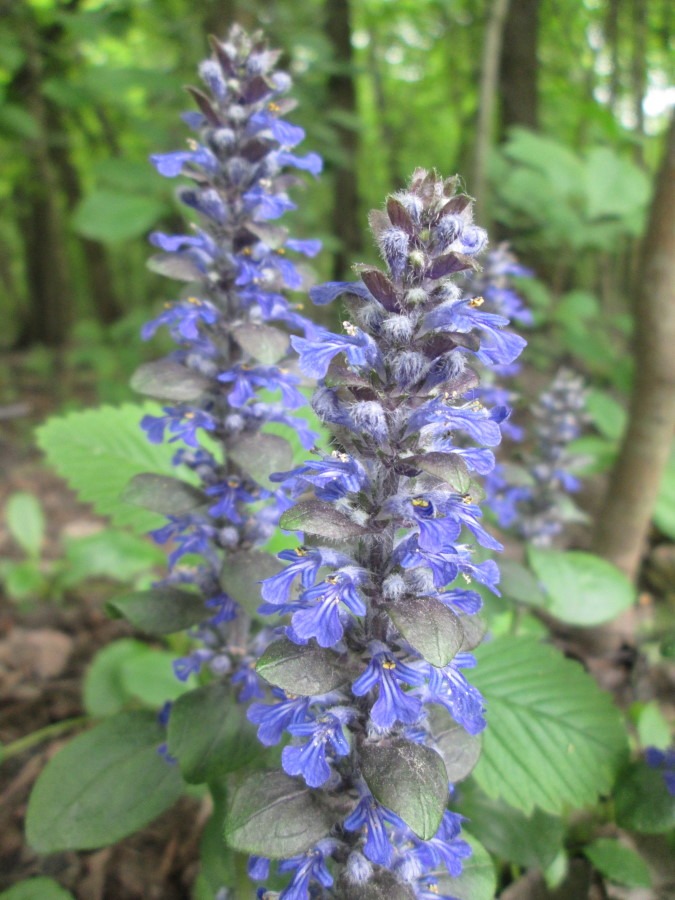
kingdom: Plantae
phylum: Tracheophyta
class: Magnoliopsida
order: Lamiales
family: Lamiaceae
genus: Ajuga
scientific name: Ajuga reptans
